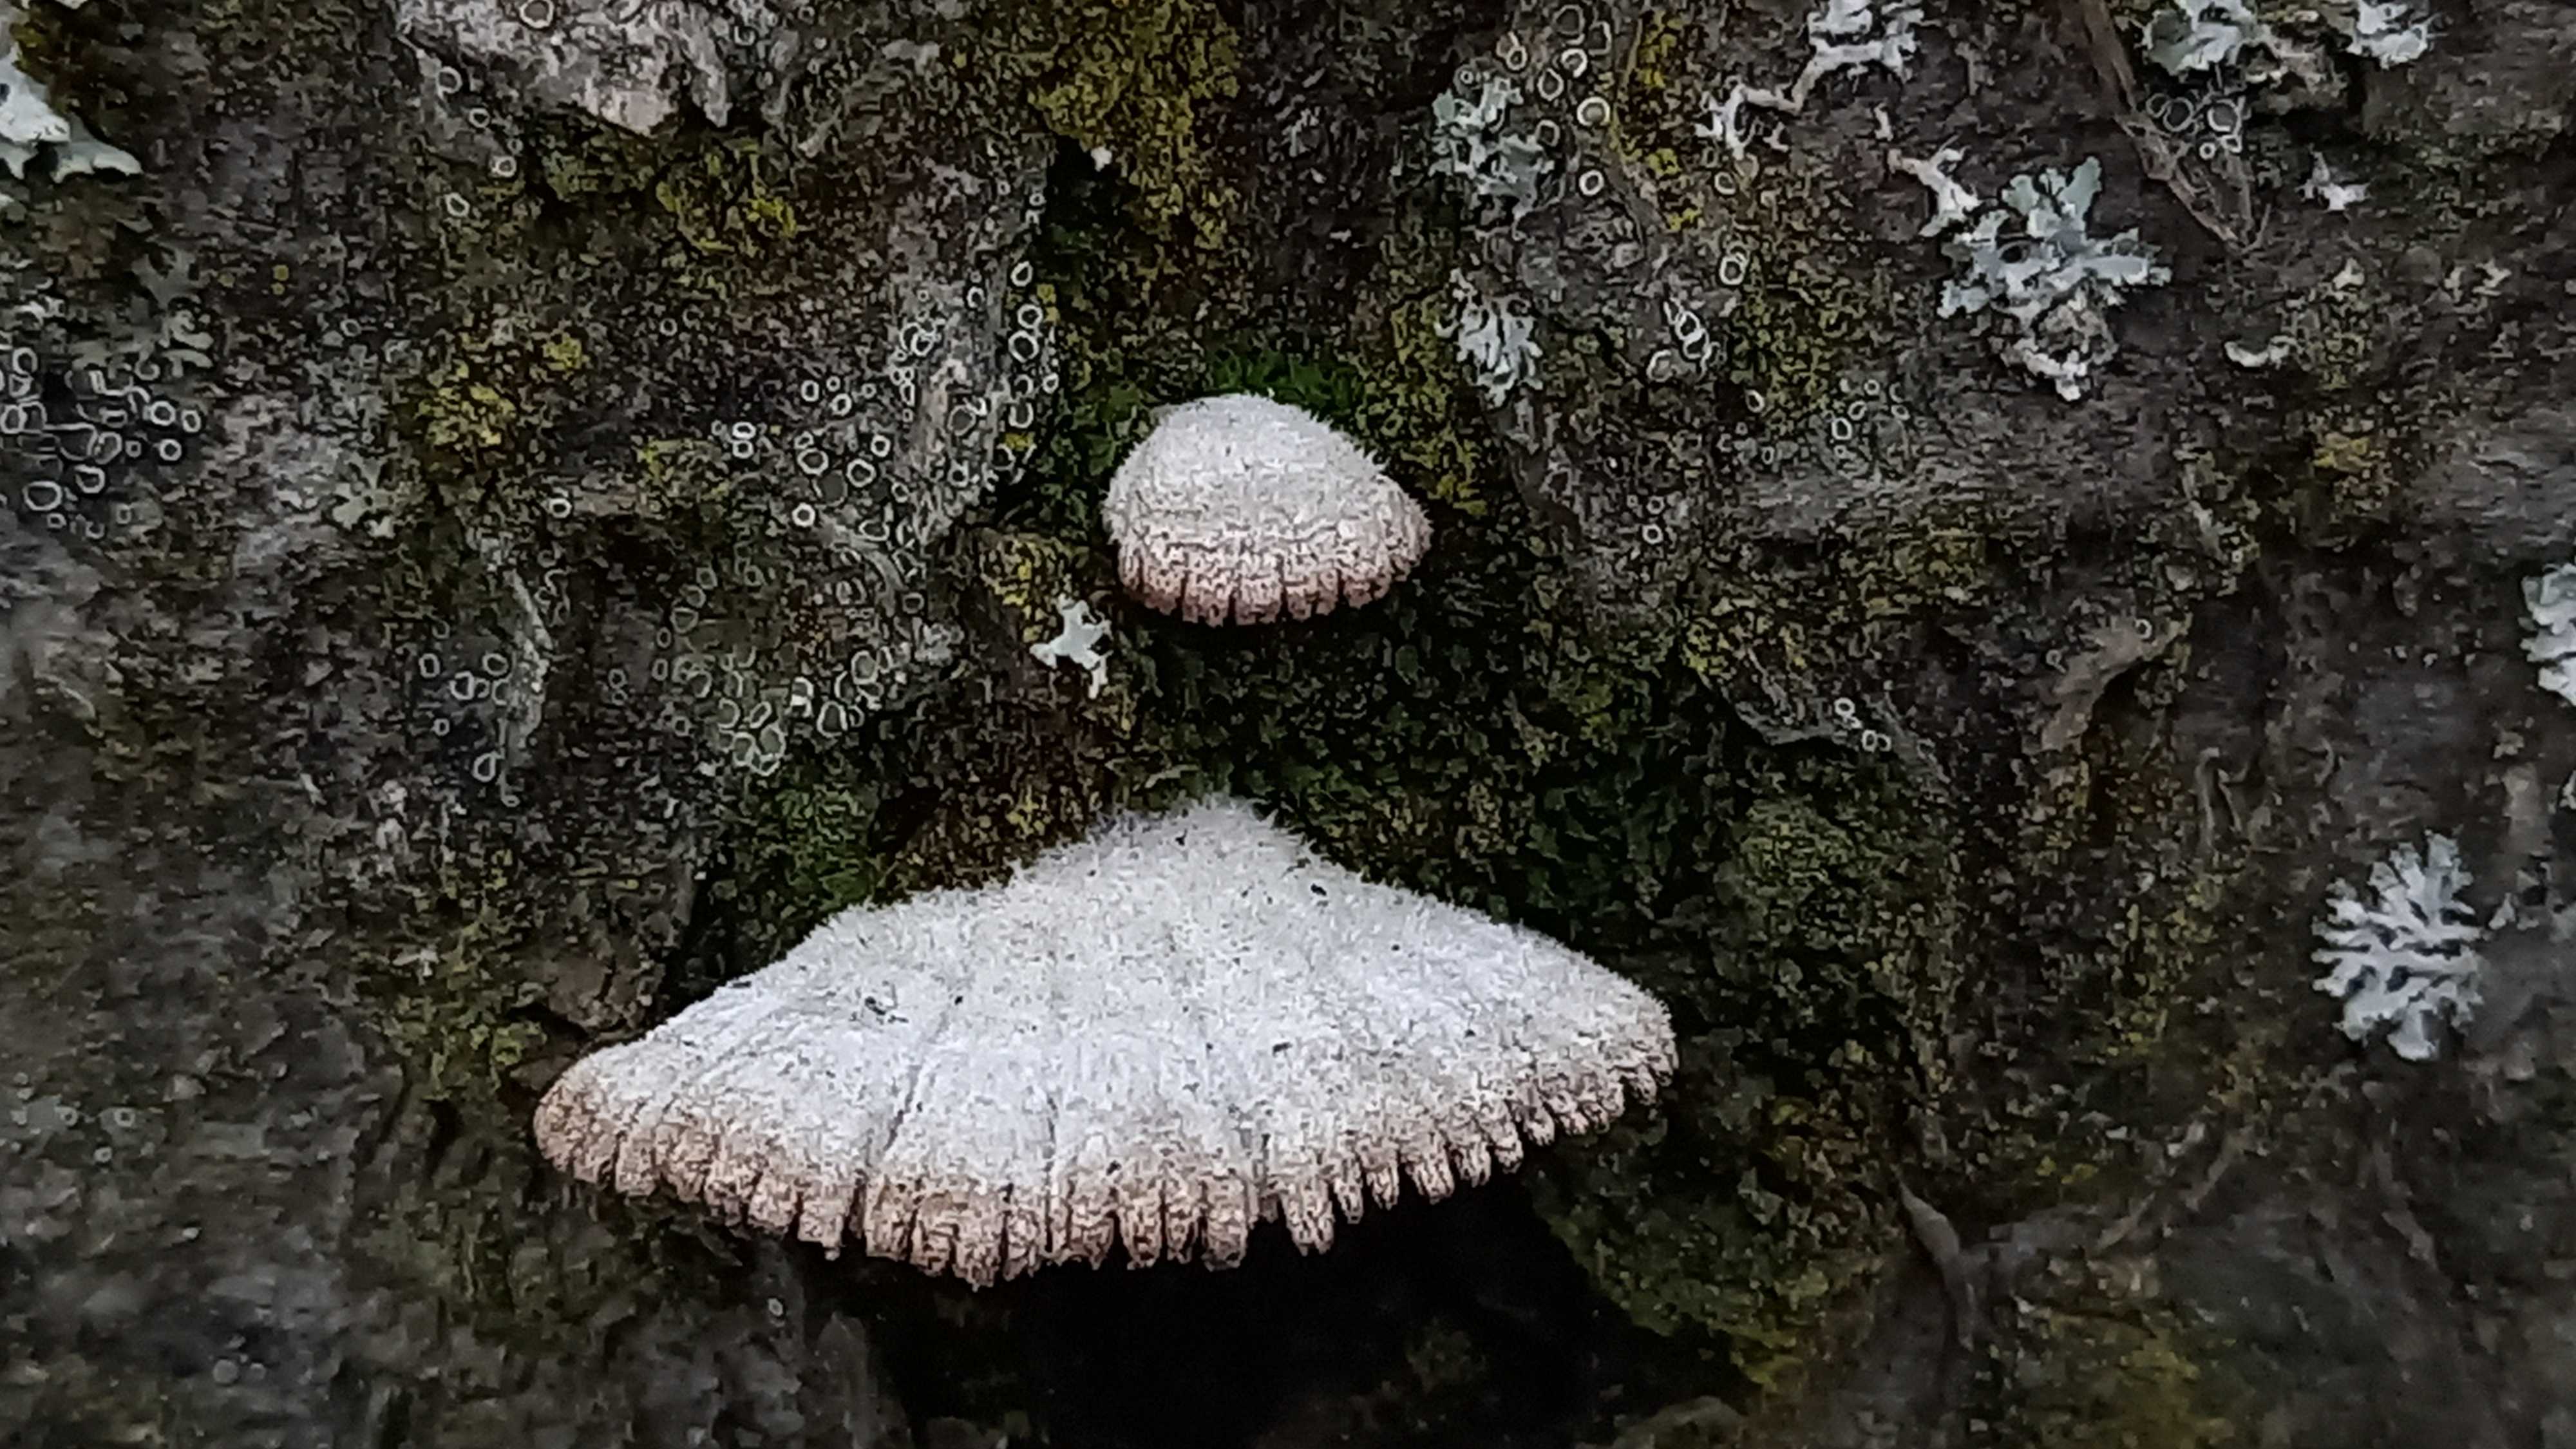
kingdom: Fungi
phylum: Basidiomycota
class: Agaricomycetes
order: Agaricales
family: Schizophyllaceae
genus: Schizophyllum
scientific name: Schizophyllum commune
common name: kløvblad
